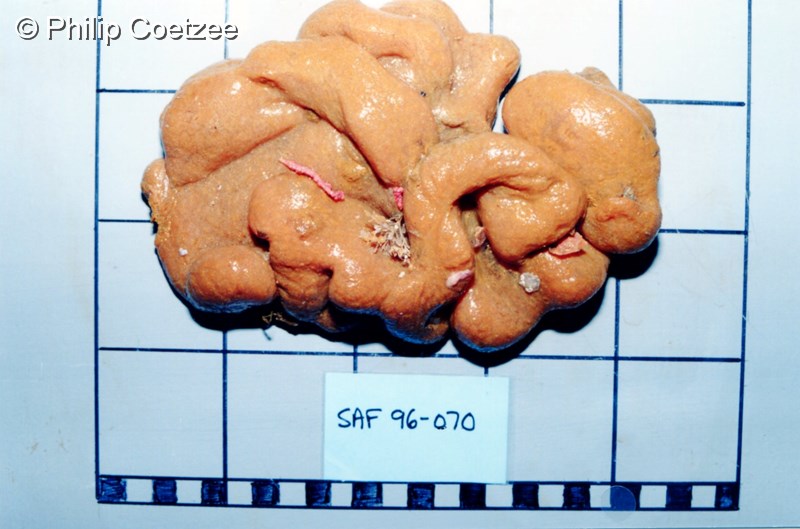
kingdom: Animalia
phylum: Chordata
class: Ascidiacea
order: Aplousobranchia
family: Polyclinidae
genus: Polyclinum
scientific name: Polyclinum isipingense
